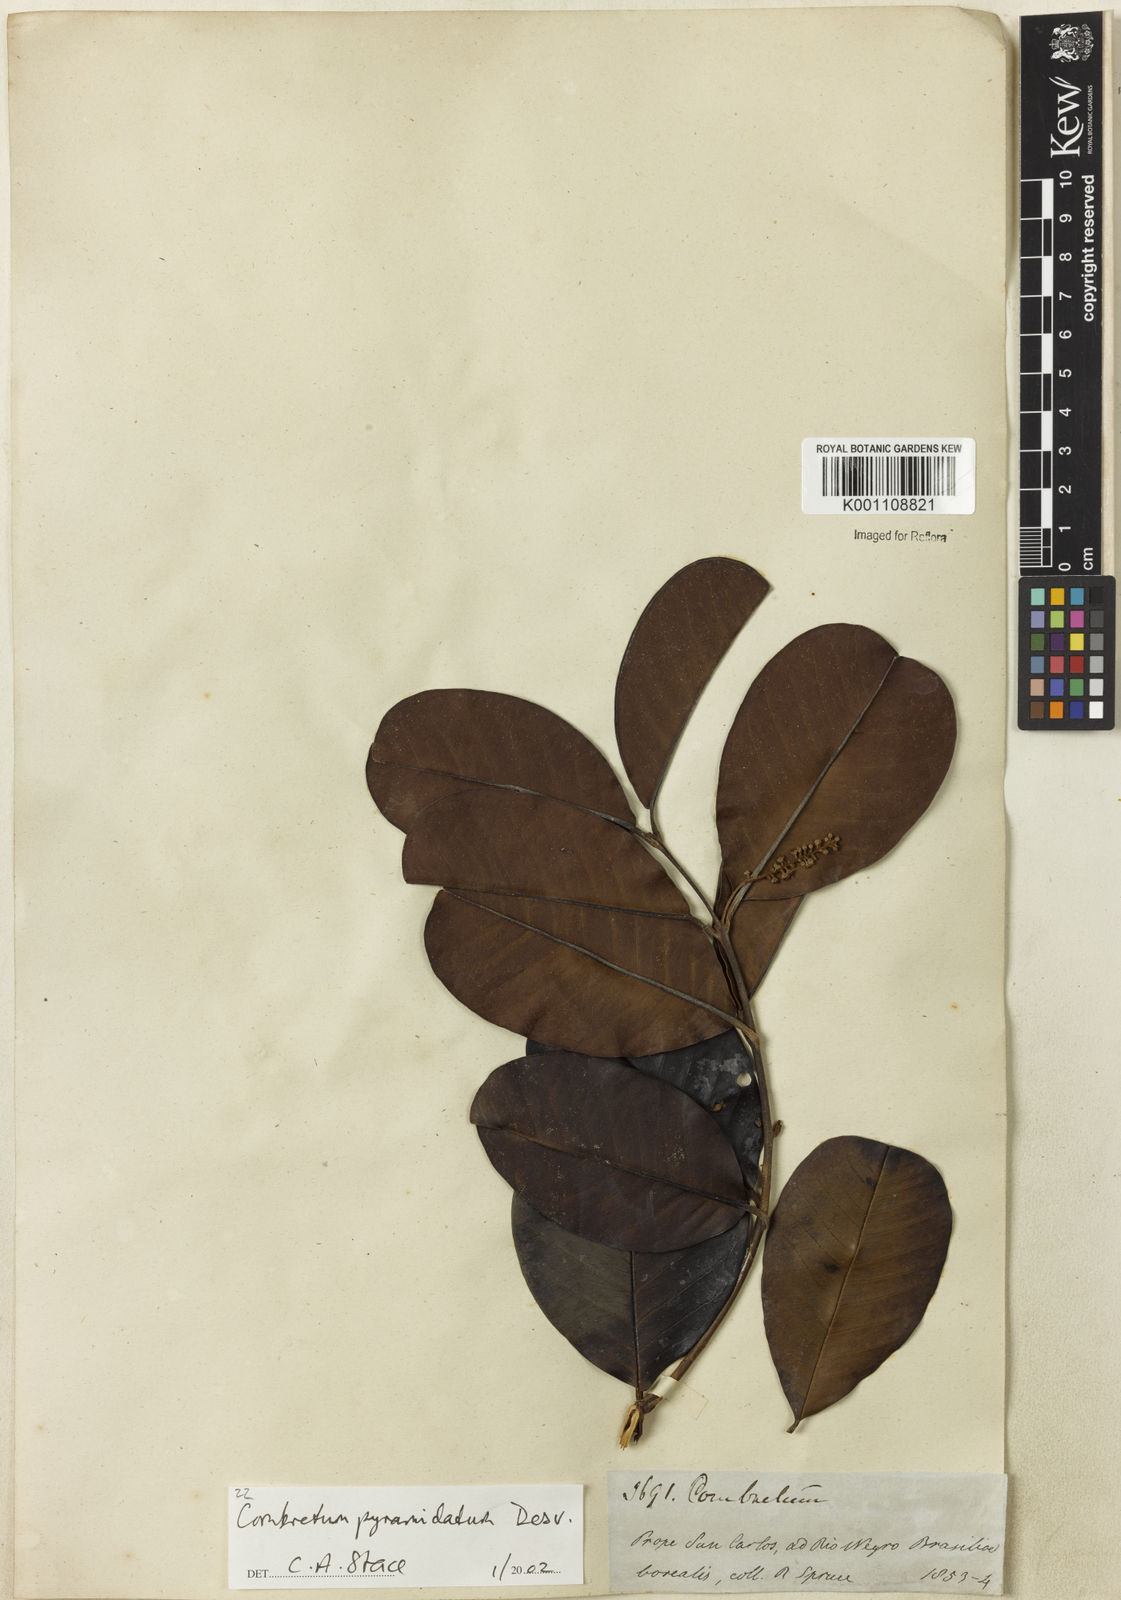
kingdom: Plantae
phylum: Tracheophyta
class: Magnoliopsida
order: Myrtales
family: Combretaceae
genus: Combretum
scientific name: Combretum pyramidatum
